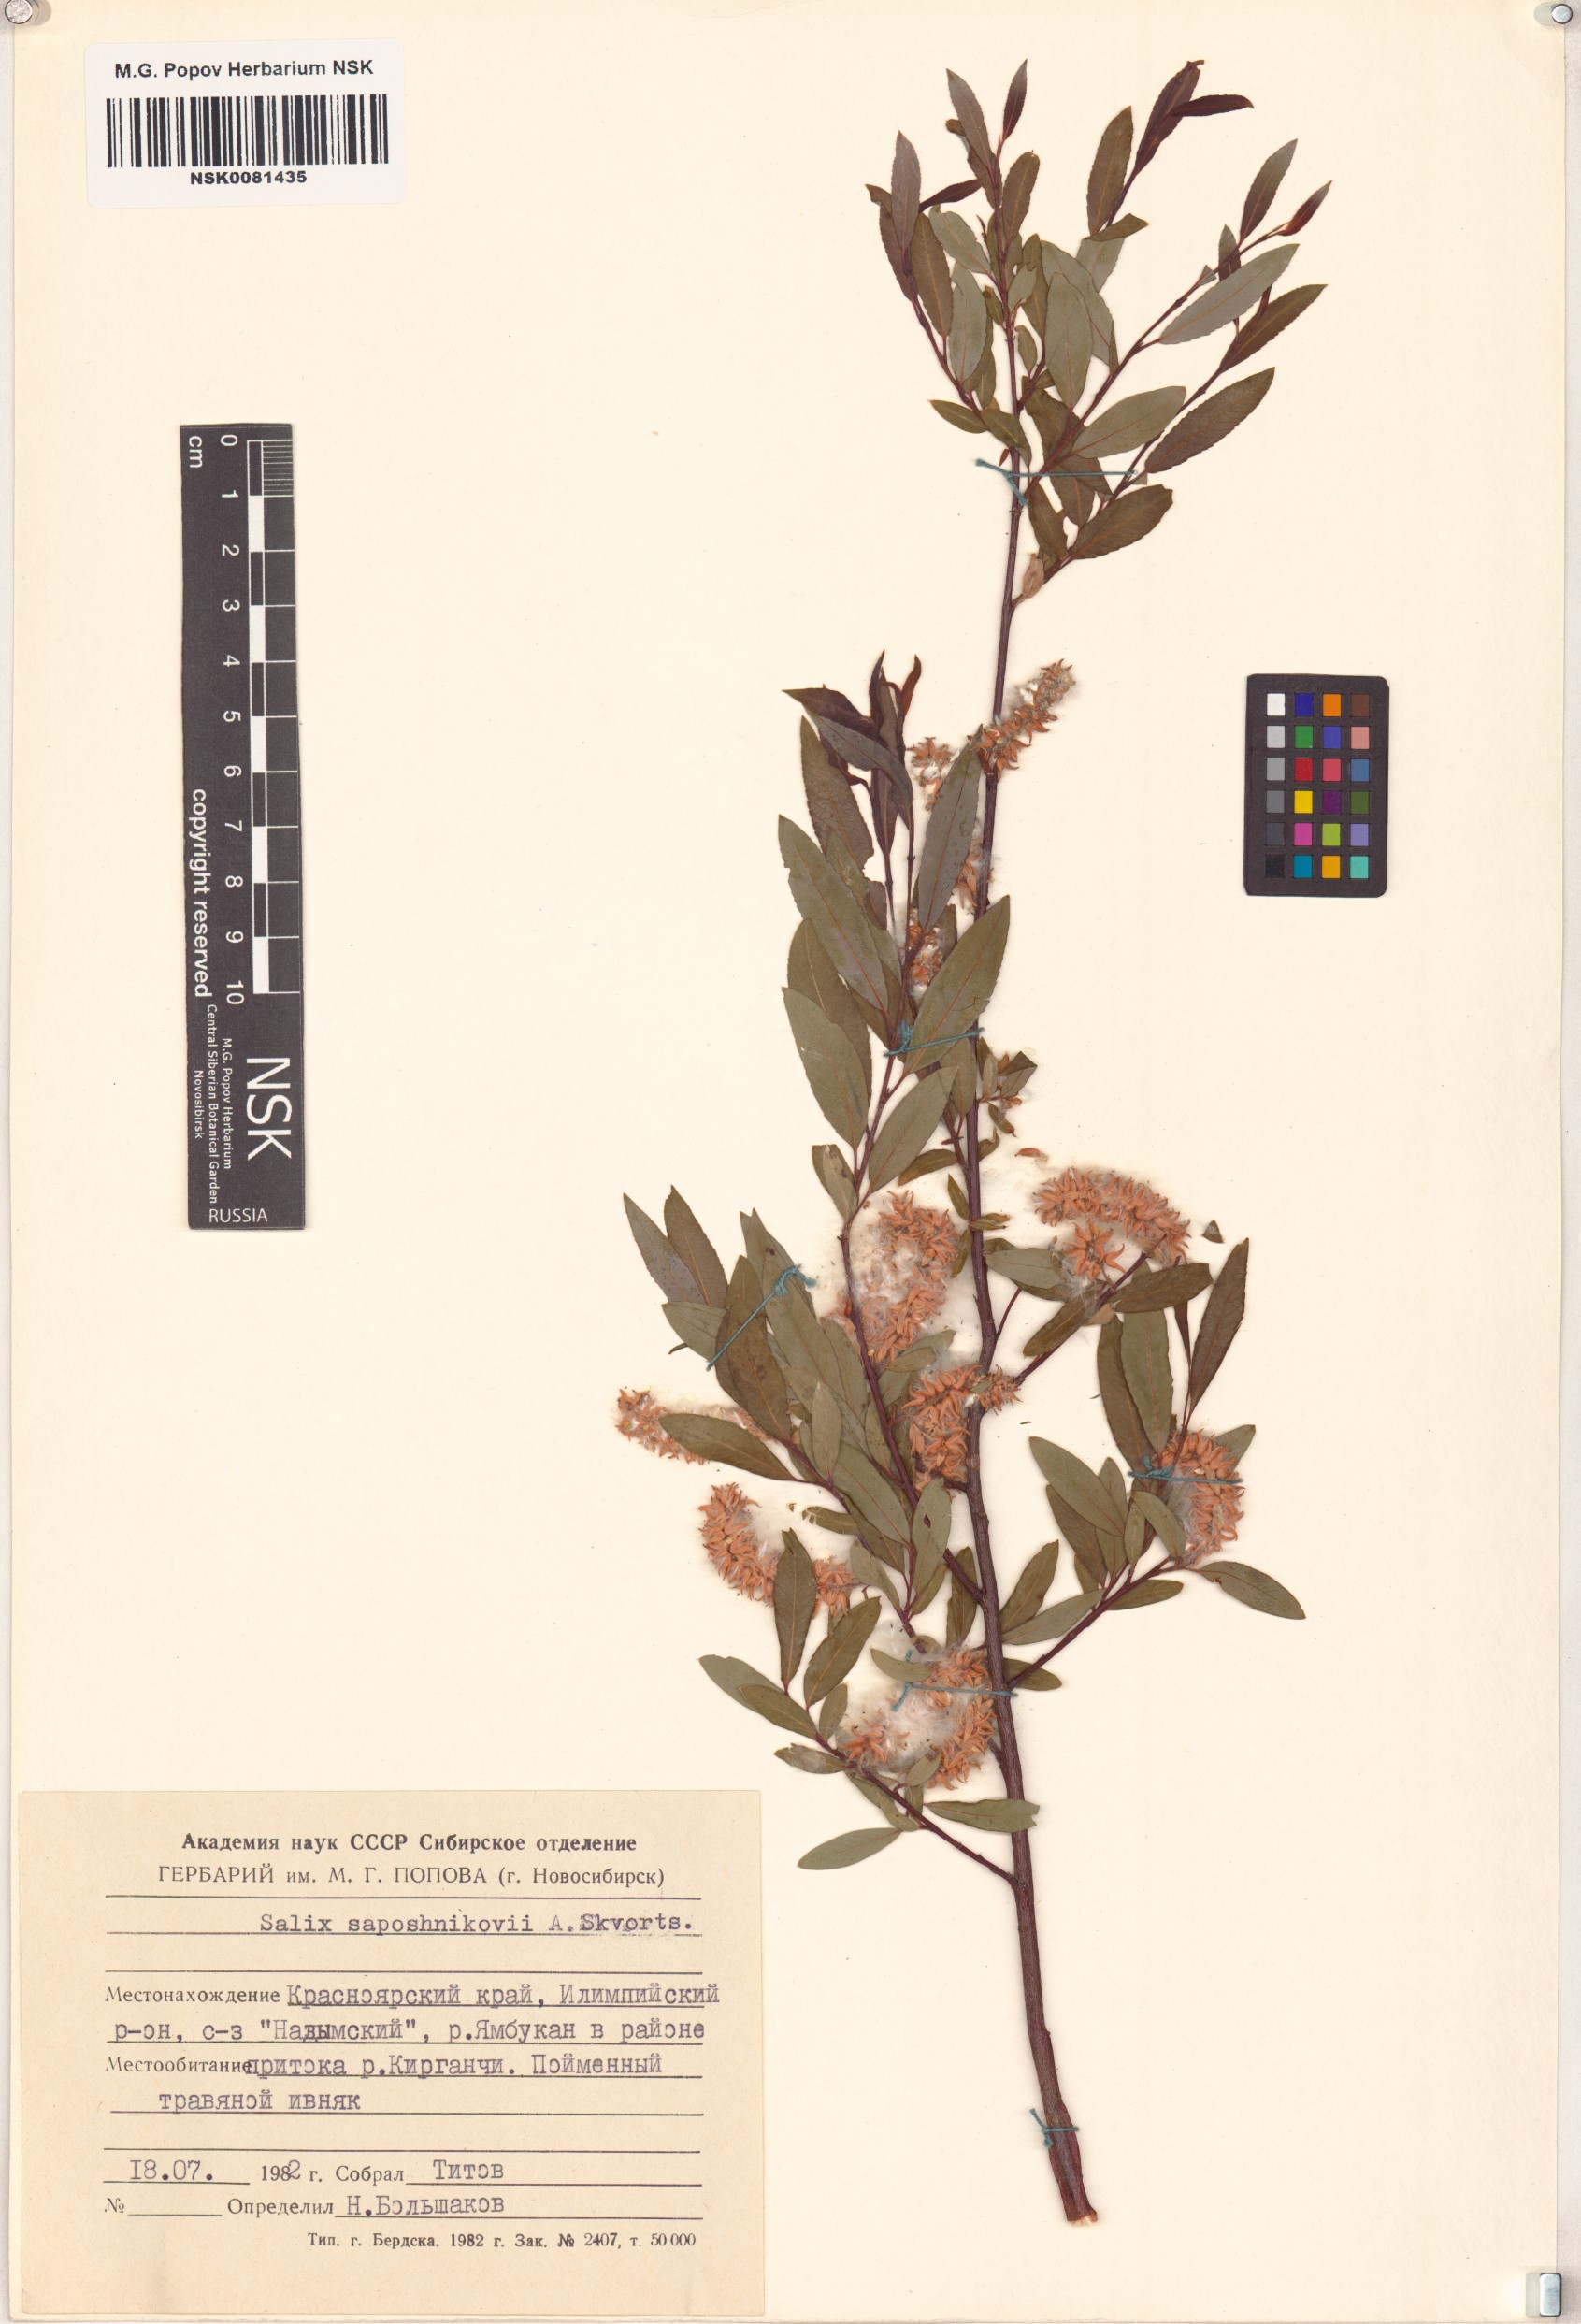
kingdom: Plantae
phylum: Tracheophyta
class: Magnoliopsida
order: Malpighiales
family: Salicaceae
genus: Salix
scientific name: Salix saposhnikovii
